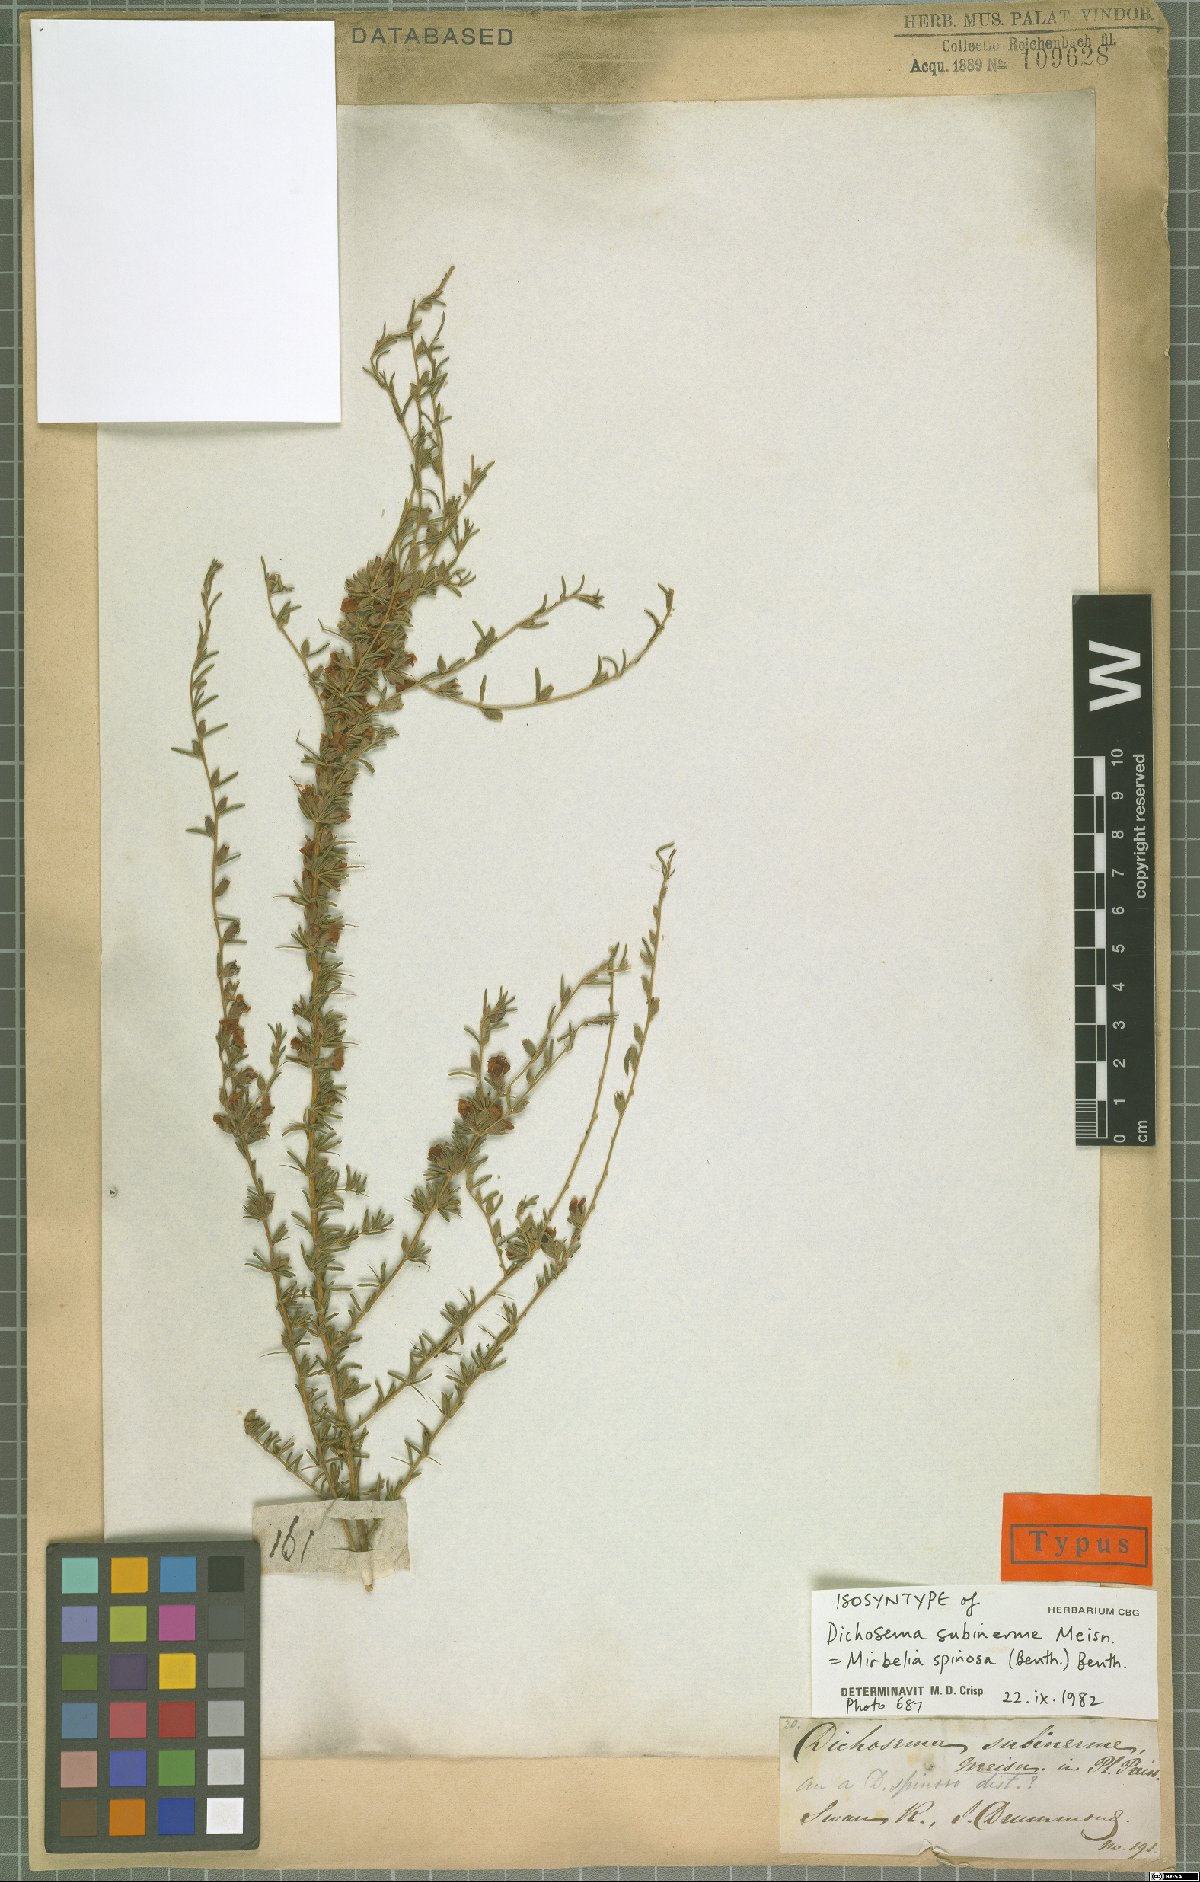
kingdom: Plantae
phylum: Tracheophyta
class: Magnoliopsida
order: Fabales
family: Fabaceae
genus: Mirbelia
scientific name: Mirbelia spinosa
